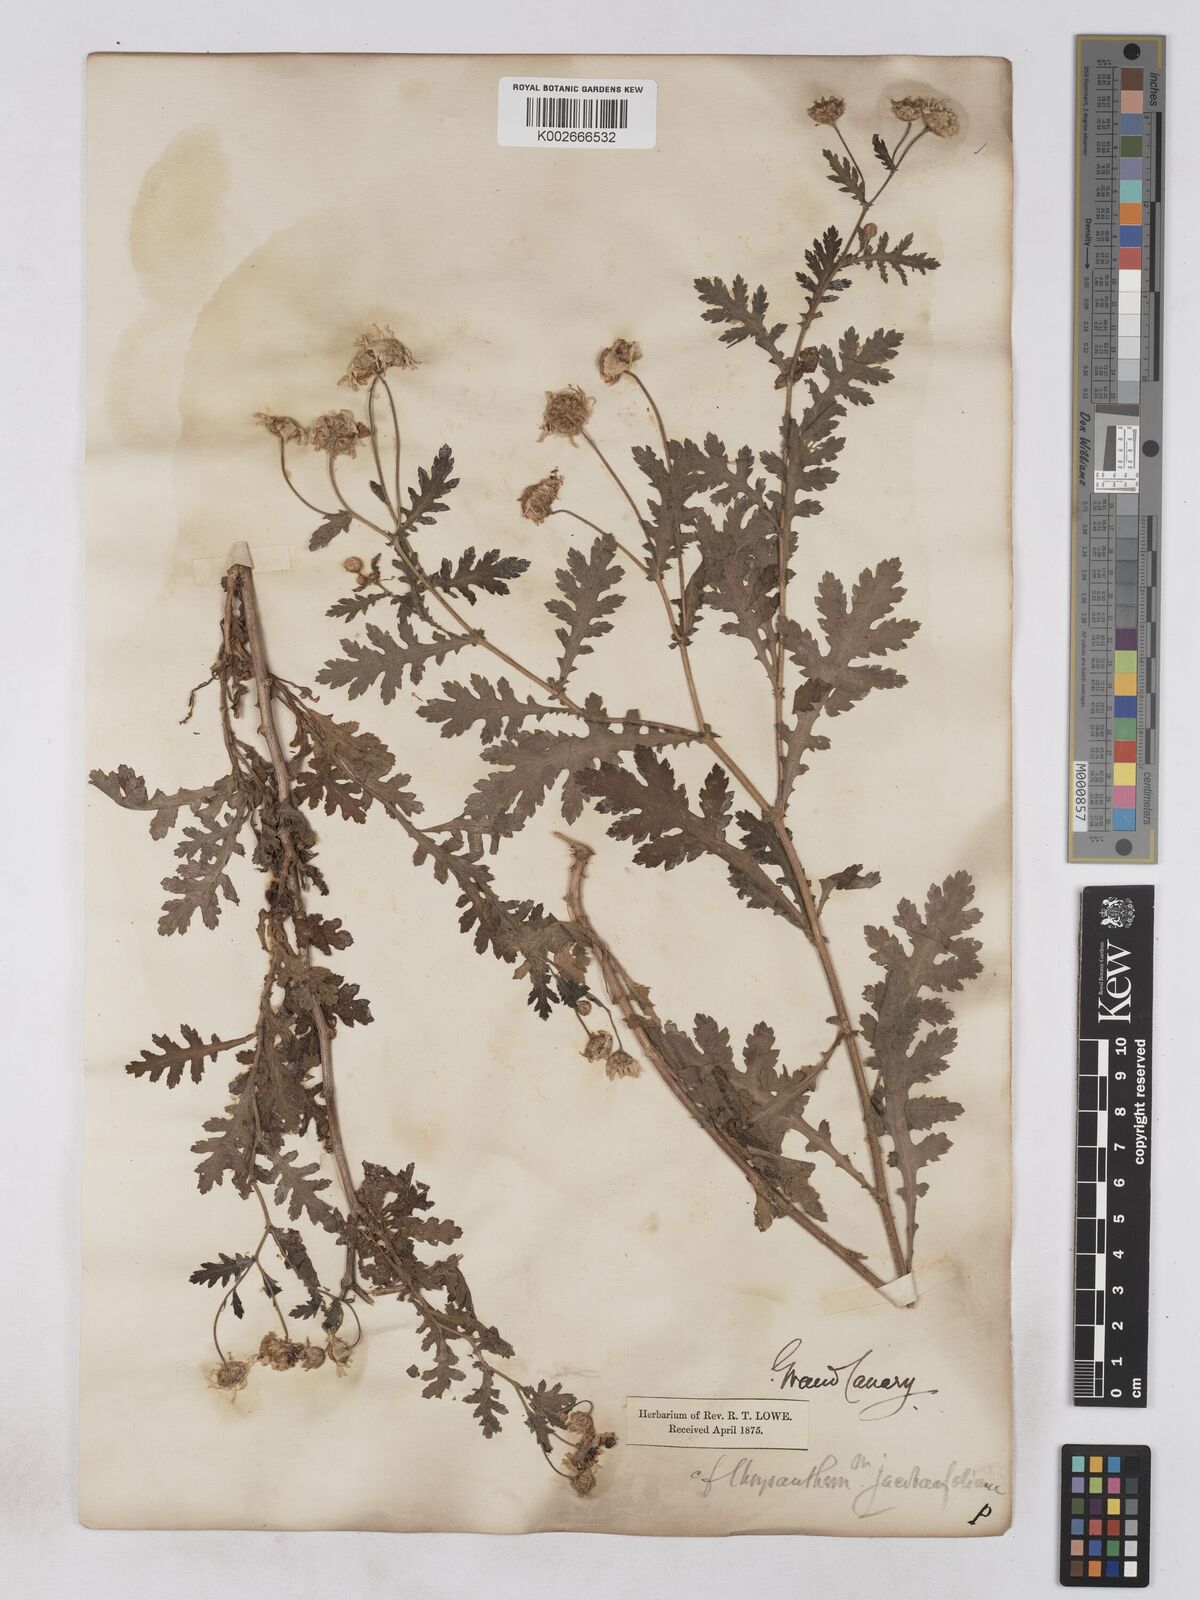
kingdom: Plantae
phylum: Tracheophyta
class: Magnoliopsida
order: Asterales
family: Asteraceae
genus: Argyranthemum
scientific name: Argyranthemum adauctum
